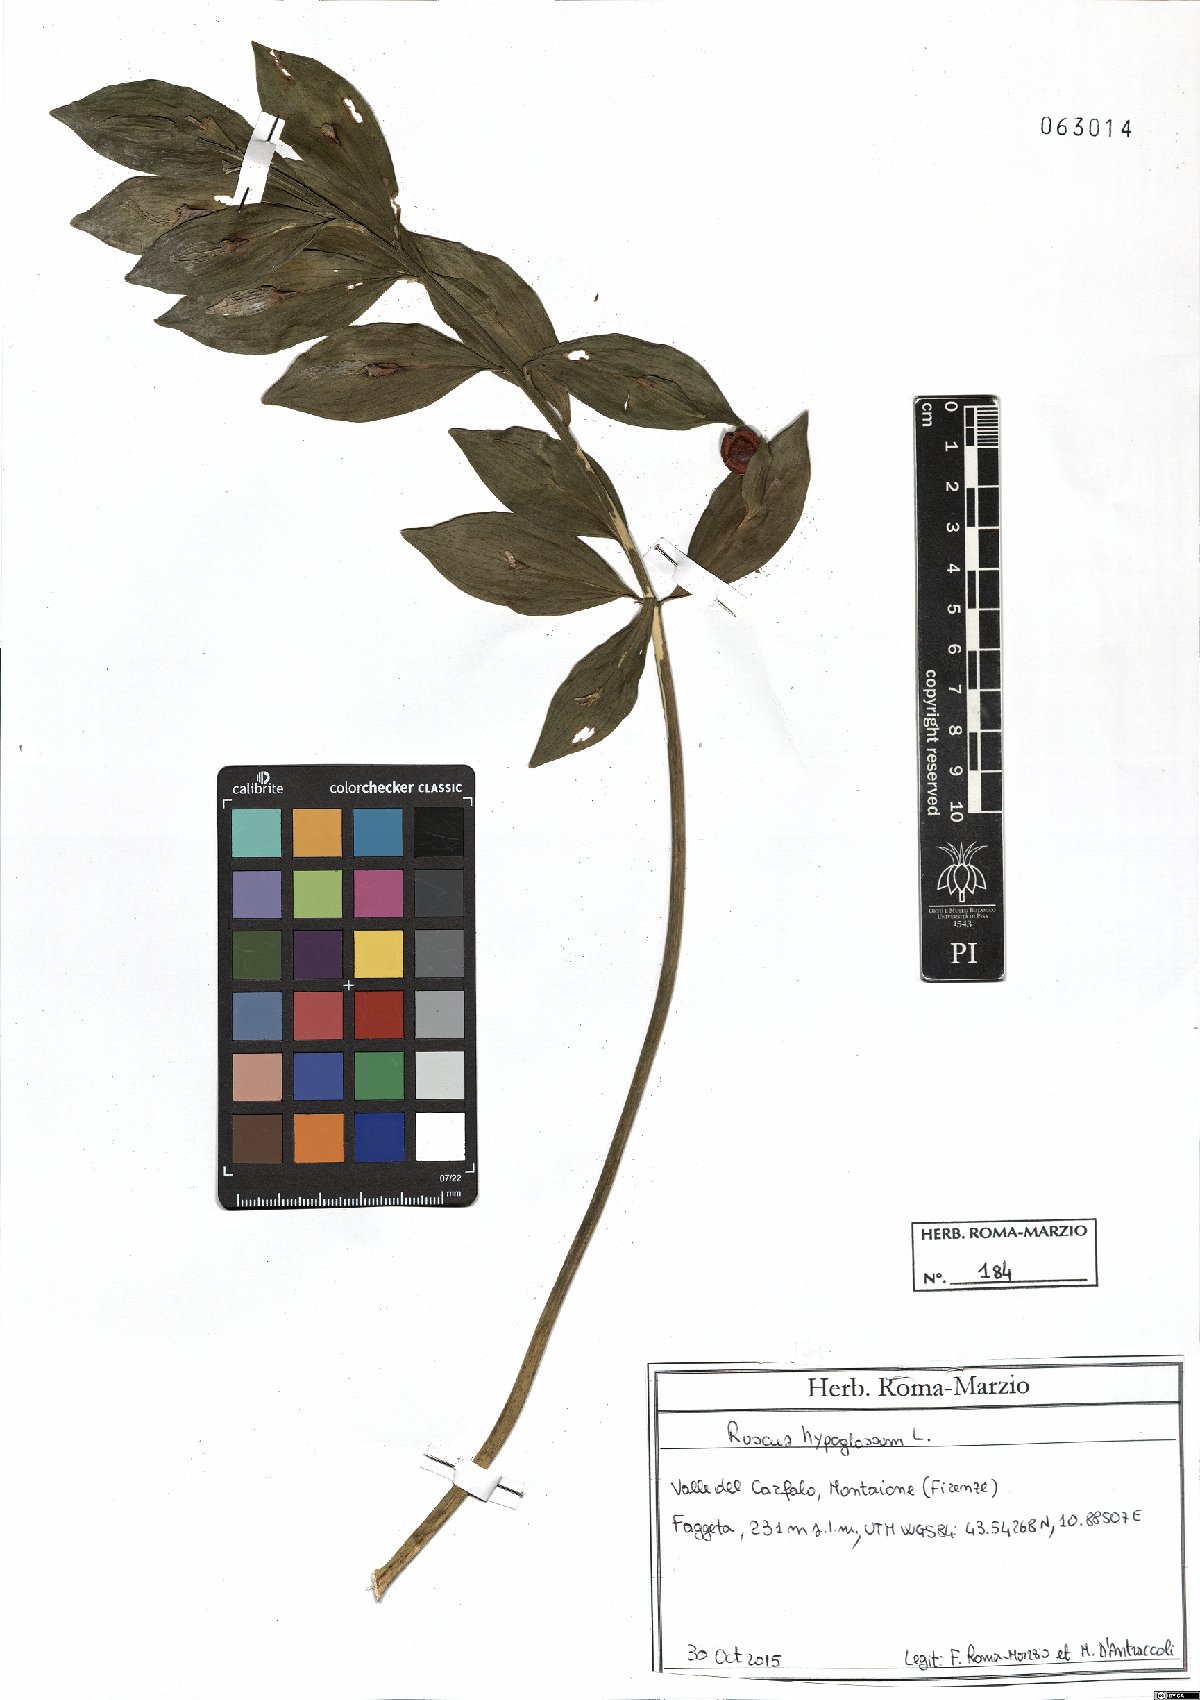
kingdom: Plantae
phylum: Tracheophyta
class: Liliopsida
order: Asparagales
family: Asparagaceae
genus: Ruscus
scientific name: Ruscus hypoglossum
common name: Spineless butcher's-broom
